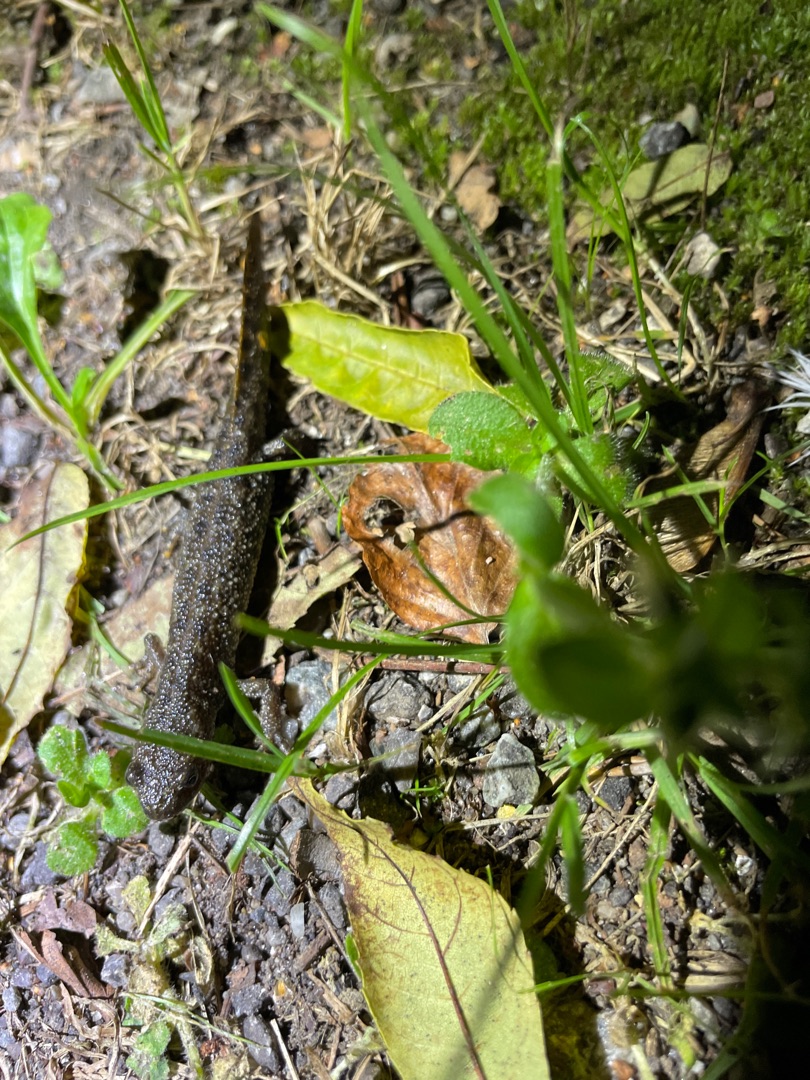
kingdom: Animalia
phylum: Chordata
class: Amphibia
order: Caudata
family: Salamandridae
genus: Triturus
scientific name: Triturus cristatus
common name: Stor vandsalamander
